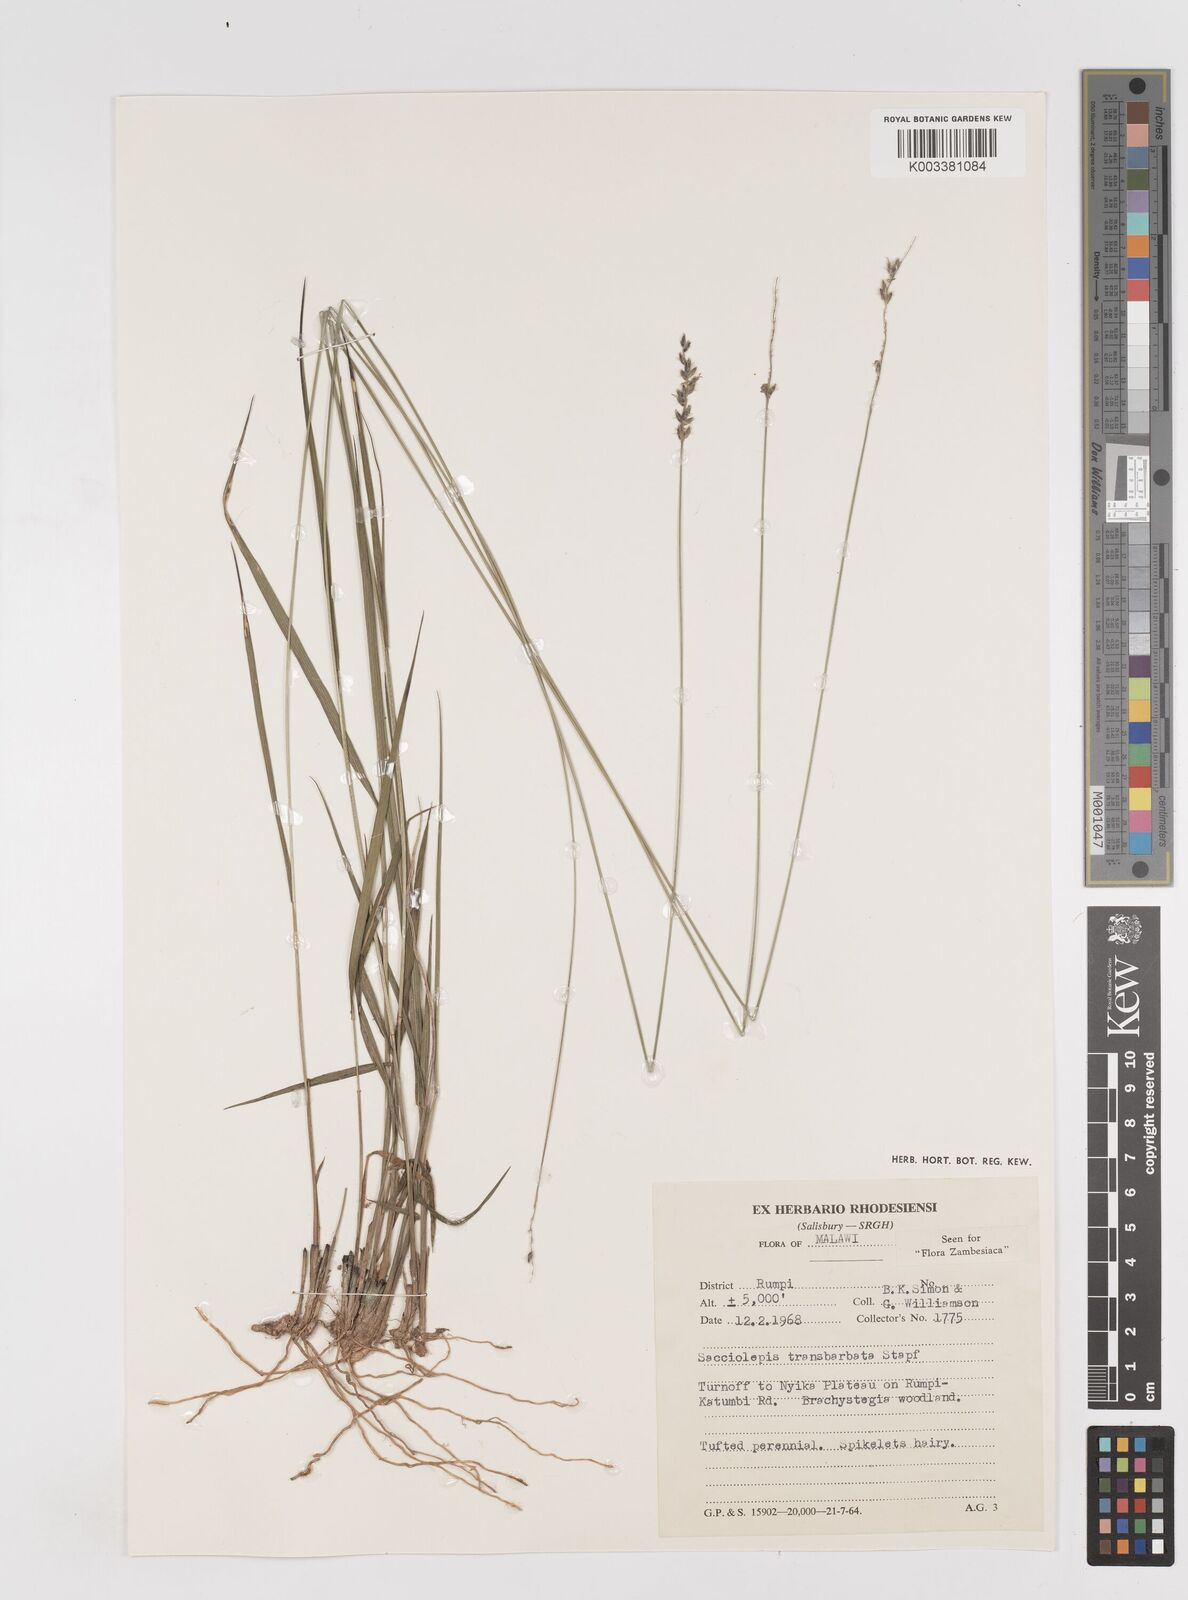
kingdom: Plantae
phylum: Tracheophyta
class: Liliopsida
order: Poales
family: Poaceae
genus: Sacciolepis
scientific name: Sacciolepis transbarbata
